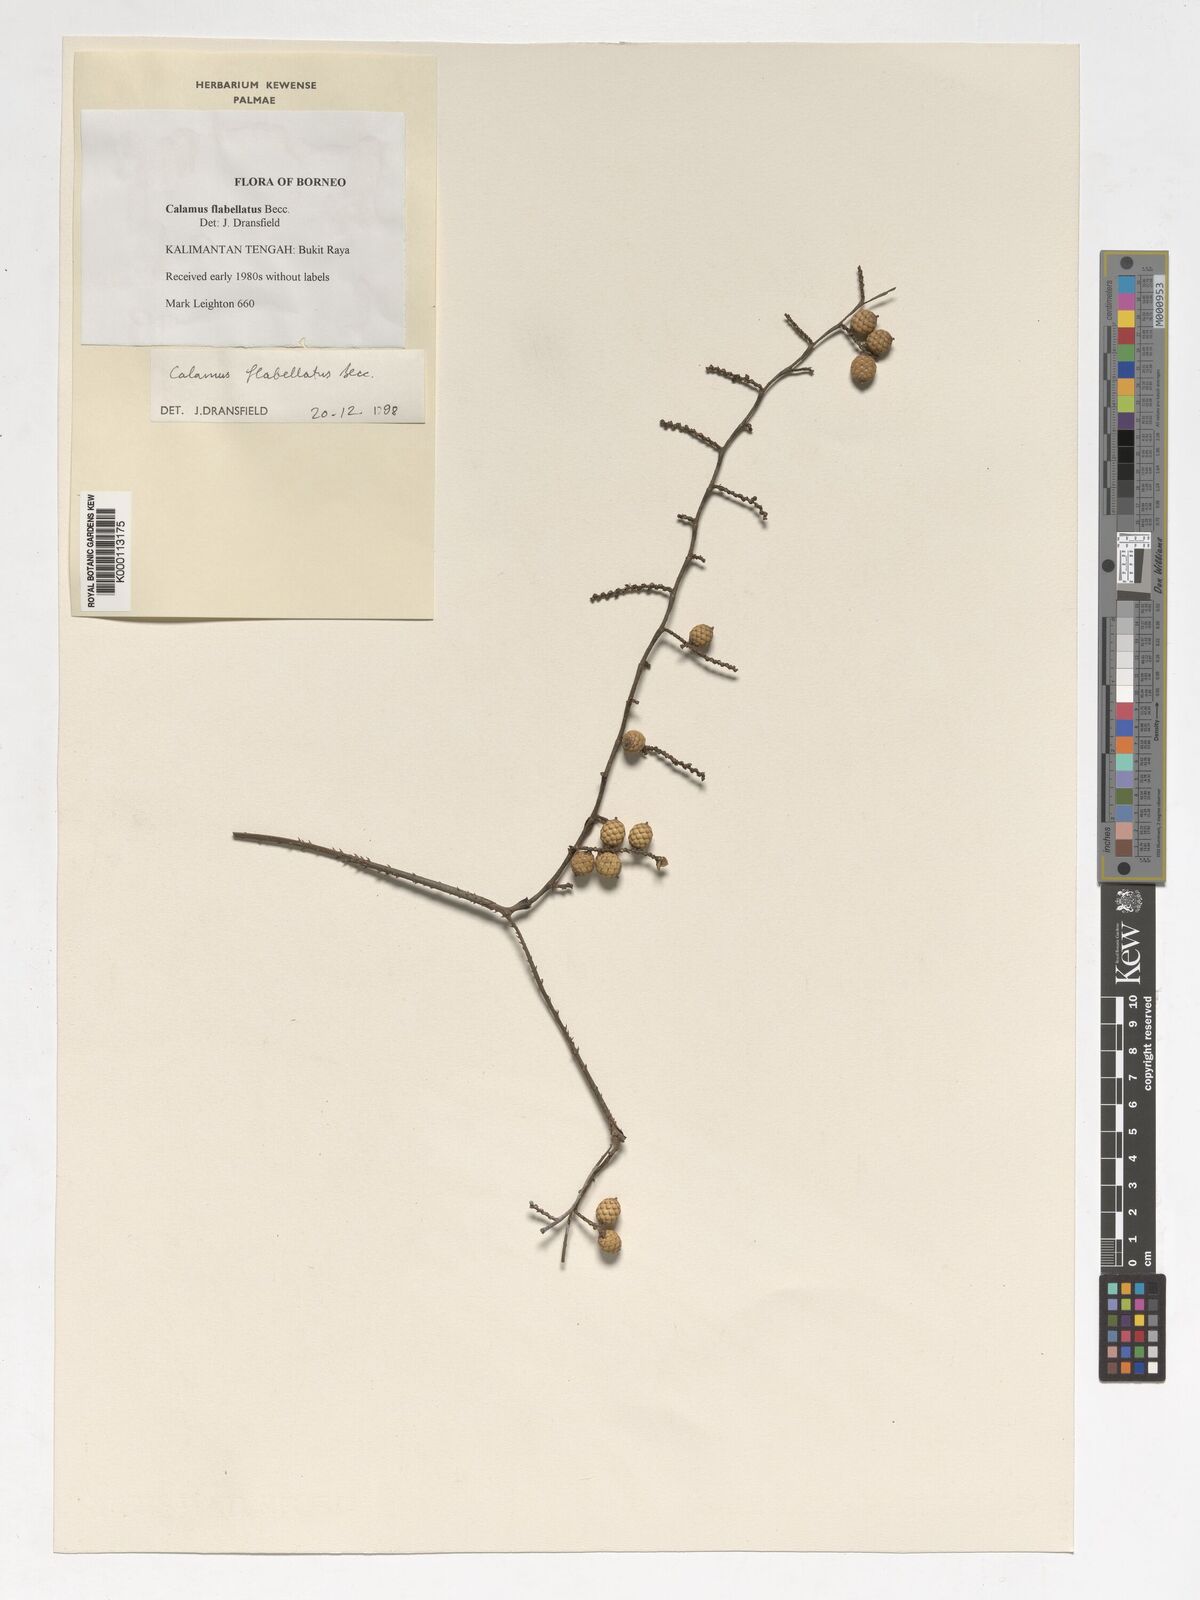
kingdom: Plantae
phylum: Tracheophyta
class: Liliopsida
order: Arecales
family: Arecaceae
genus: Calamus
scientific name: Calamus flabellatus
